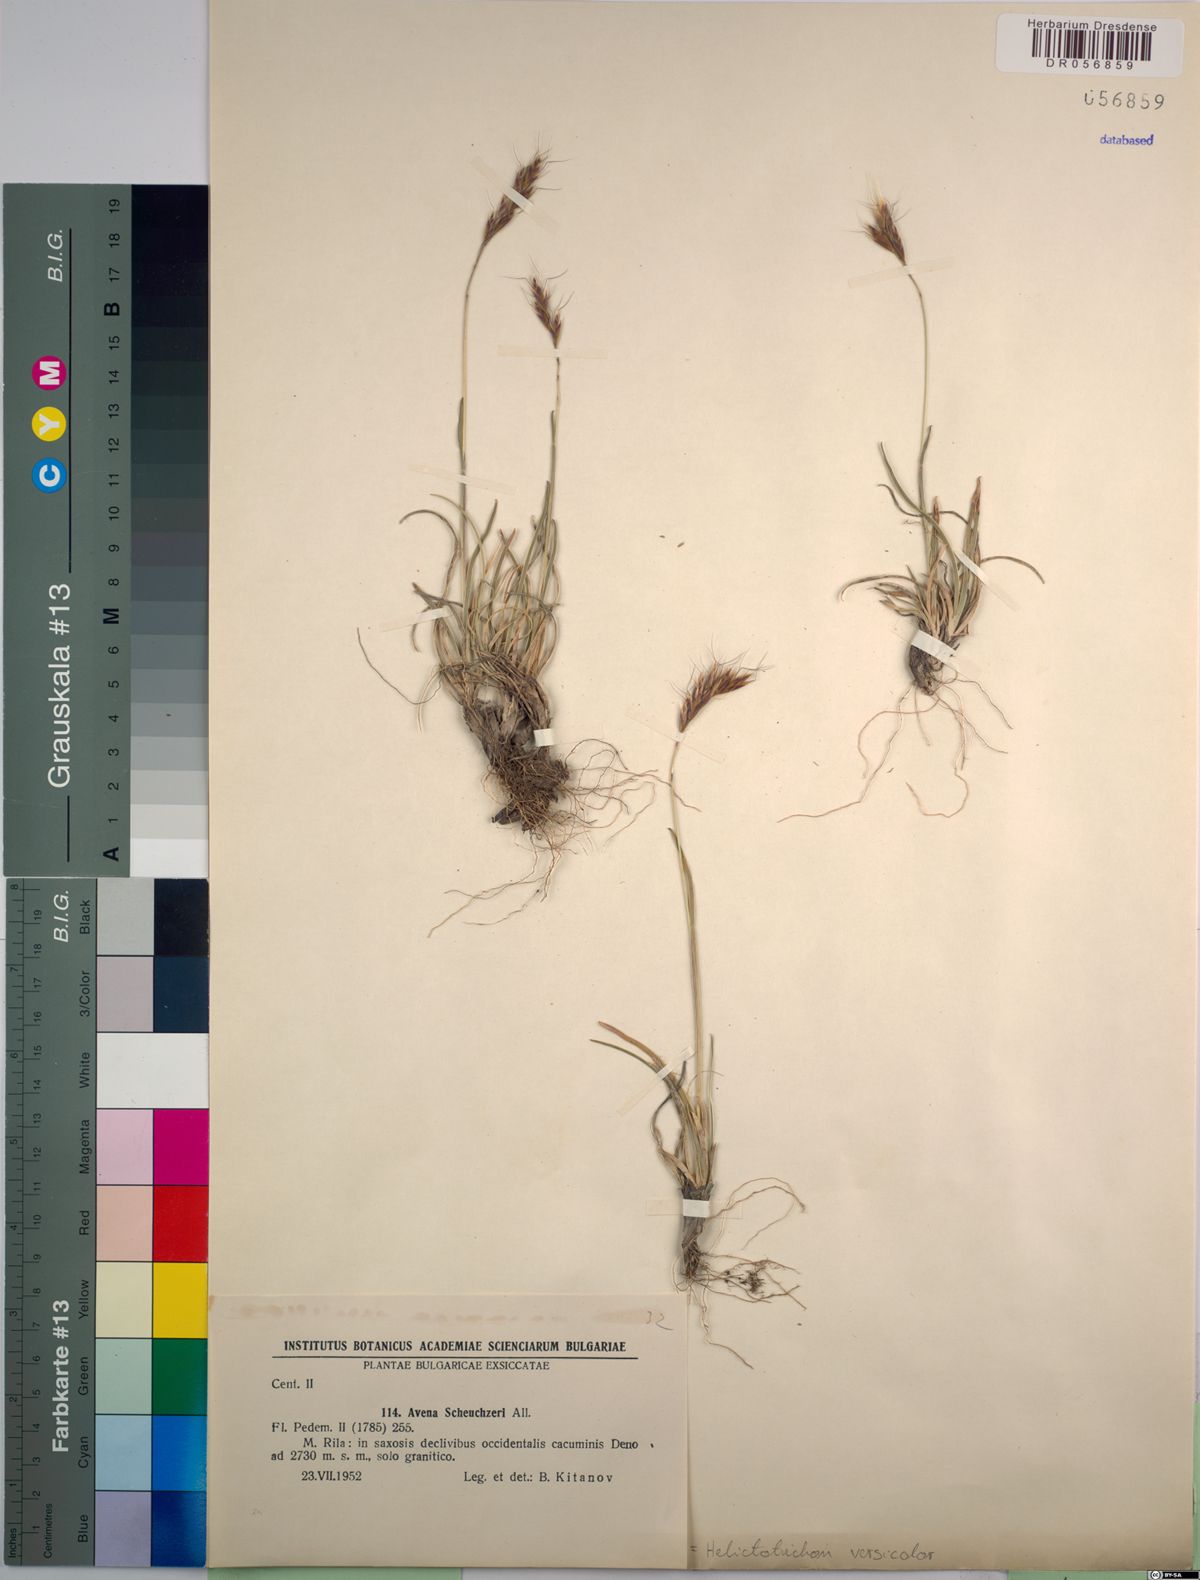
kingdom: Plantae
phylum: Tracheophyta
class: Liliopsida
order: Poales
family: Poaceae
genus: Helictochloa
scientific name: Helictochloa versicolor
